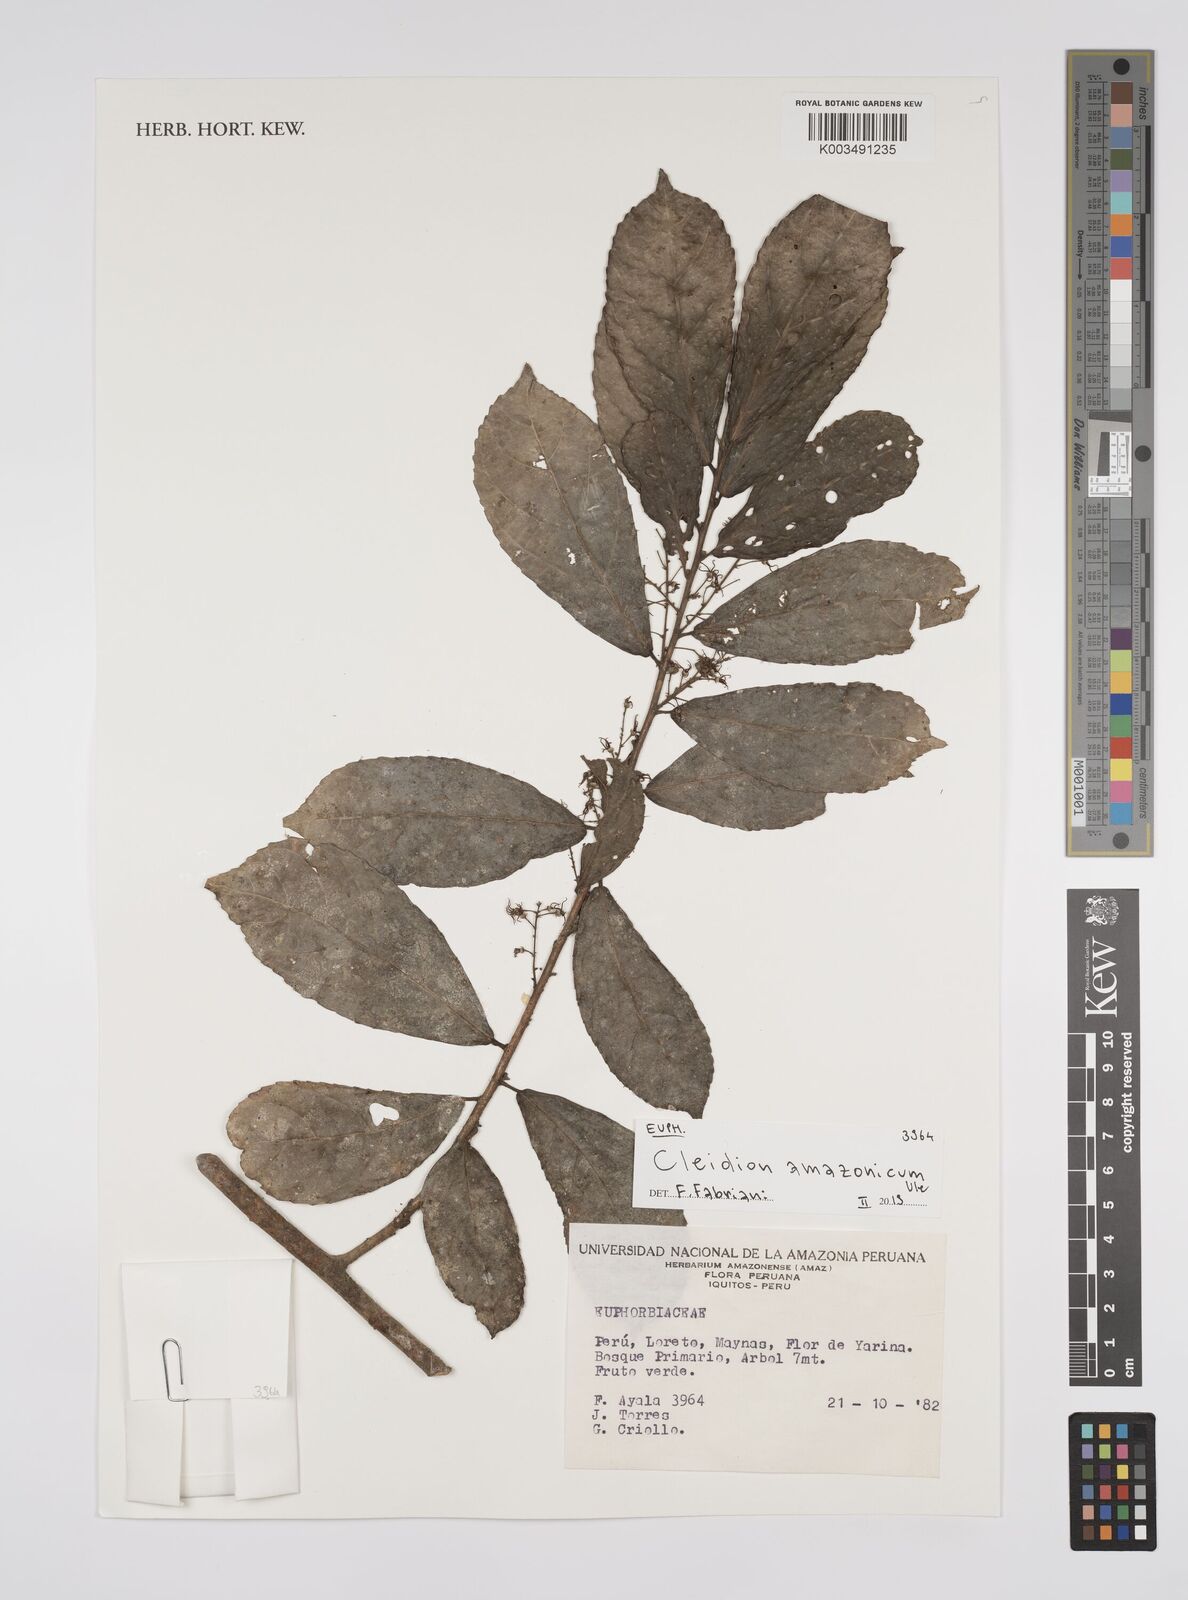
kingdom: Plantae
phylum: Tracheophyta
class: Magnoliopsida
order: Malpighiales
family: Euphorbiaceae
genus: Cleidion
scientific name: Cleidion amazonicum
